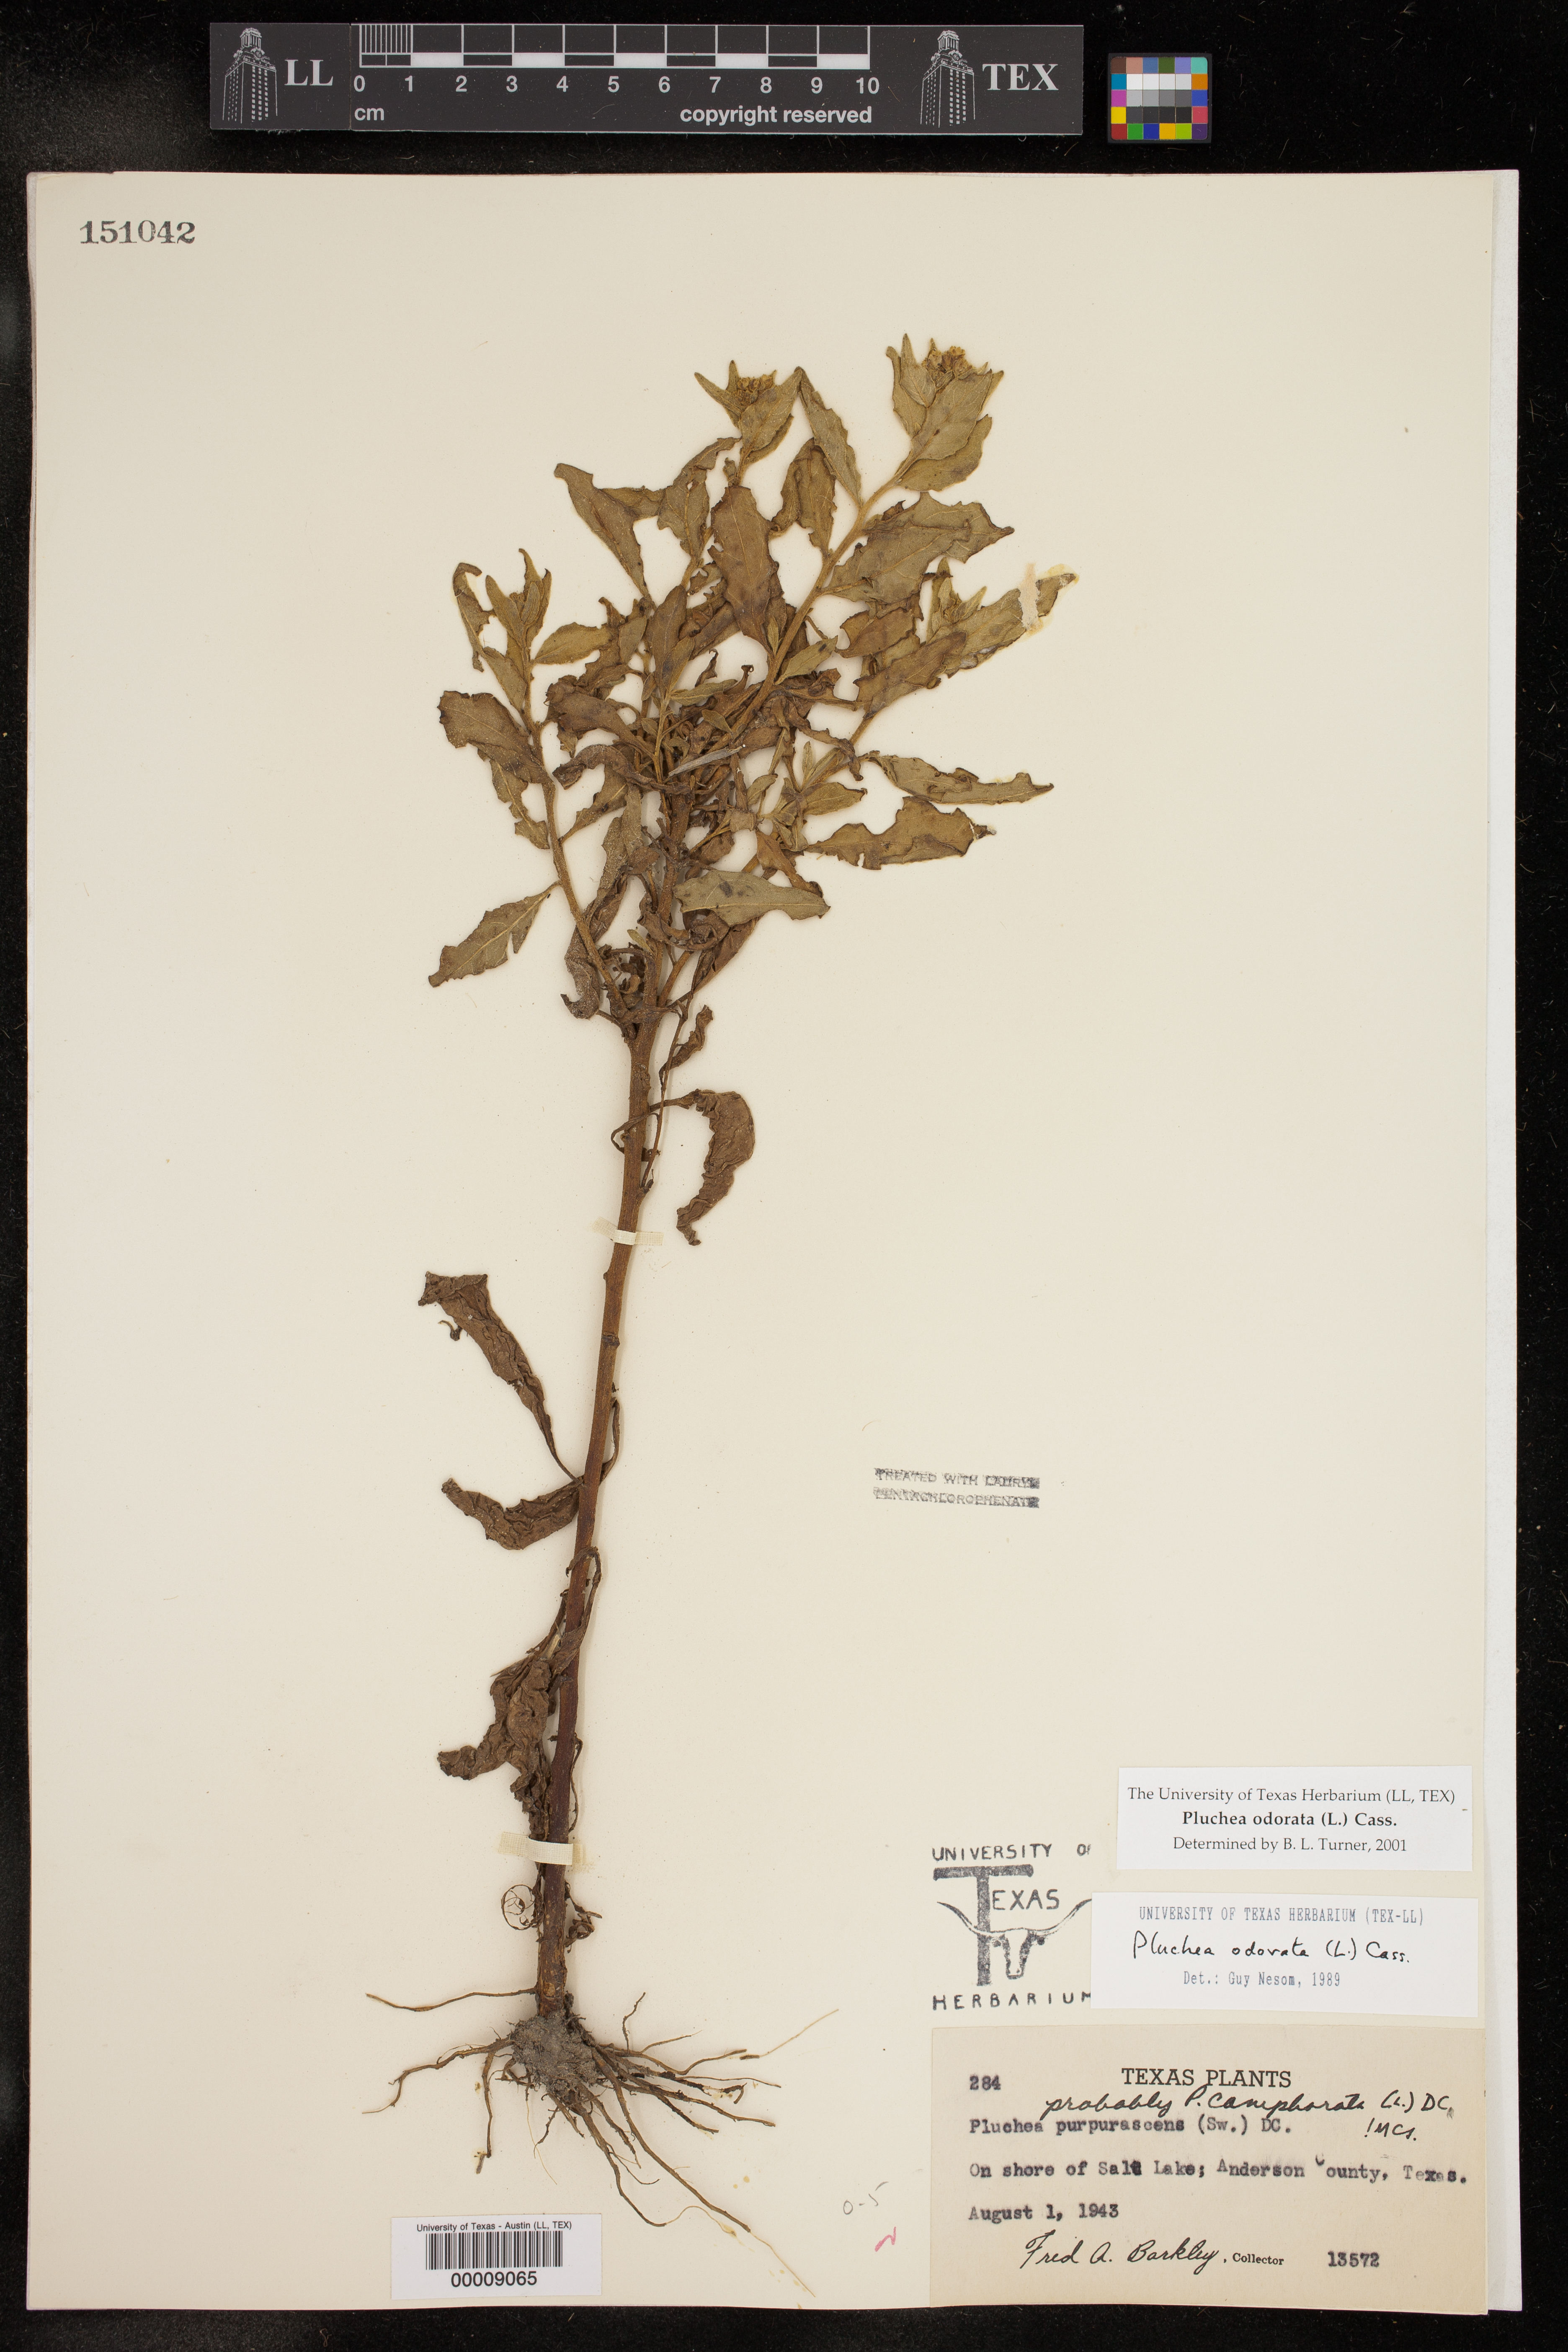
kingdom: Plantae
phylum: Tracheophyta
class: Magnoliopsida
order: Asterales
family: Asteraceae
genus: Pluchea
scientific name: Pluchea odorata
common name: Saltmarsh fleabane
